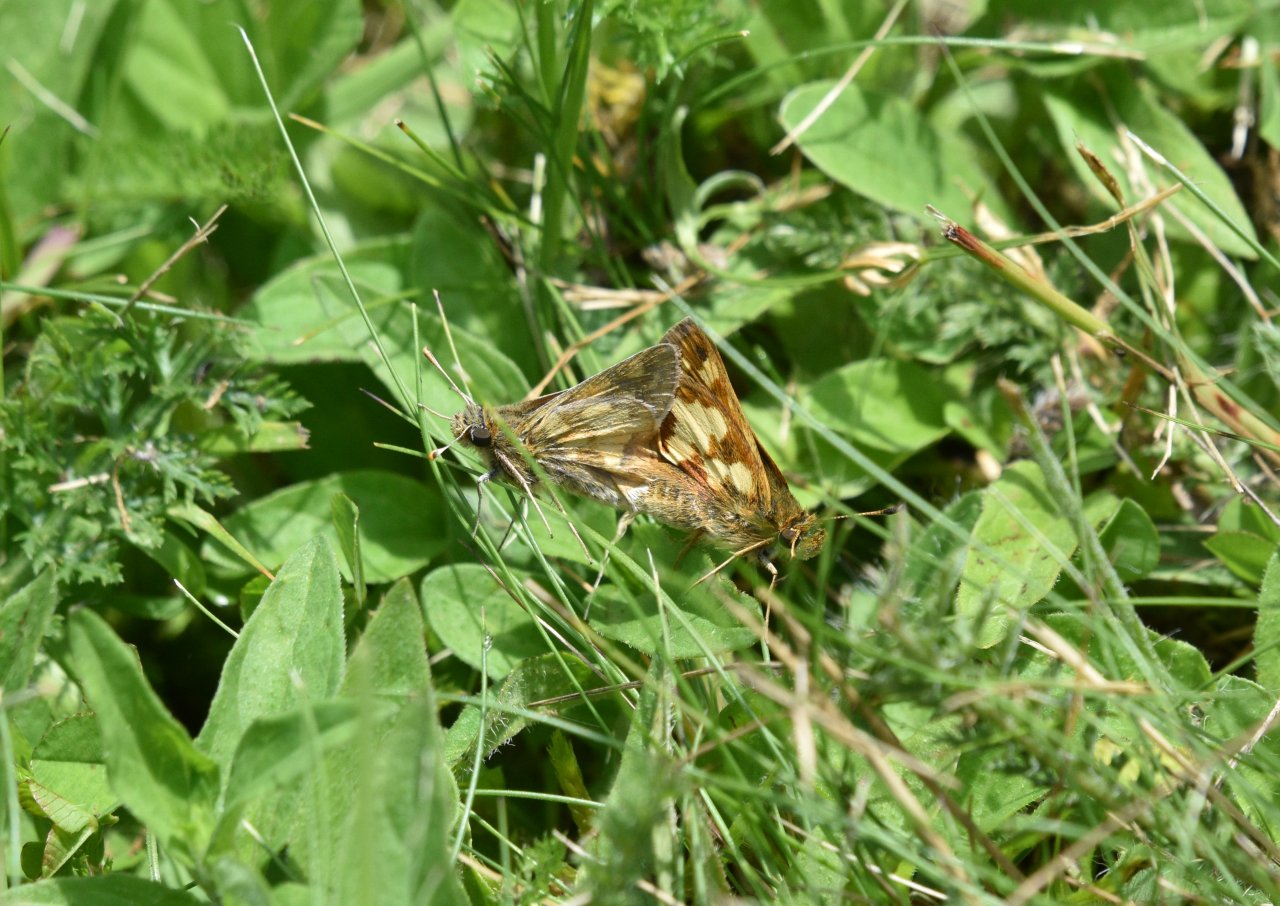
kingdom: Animalia
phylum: Arthropoda
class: Insecta
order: Lepidoptera
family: Hesperiidae
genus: Polites
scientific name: Polites coras
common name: Peck's Skipper
